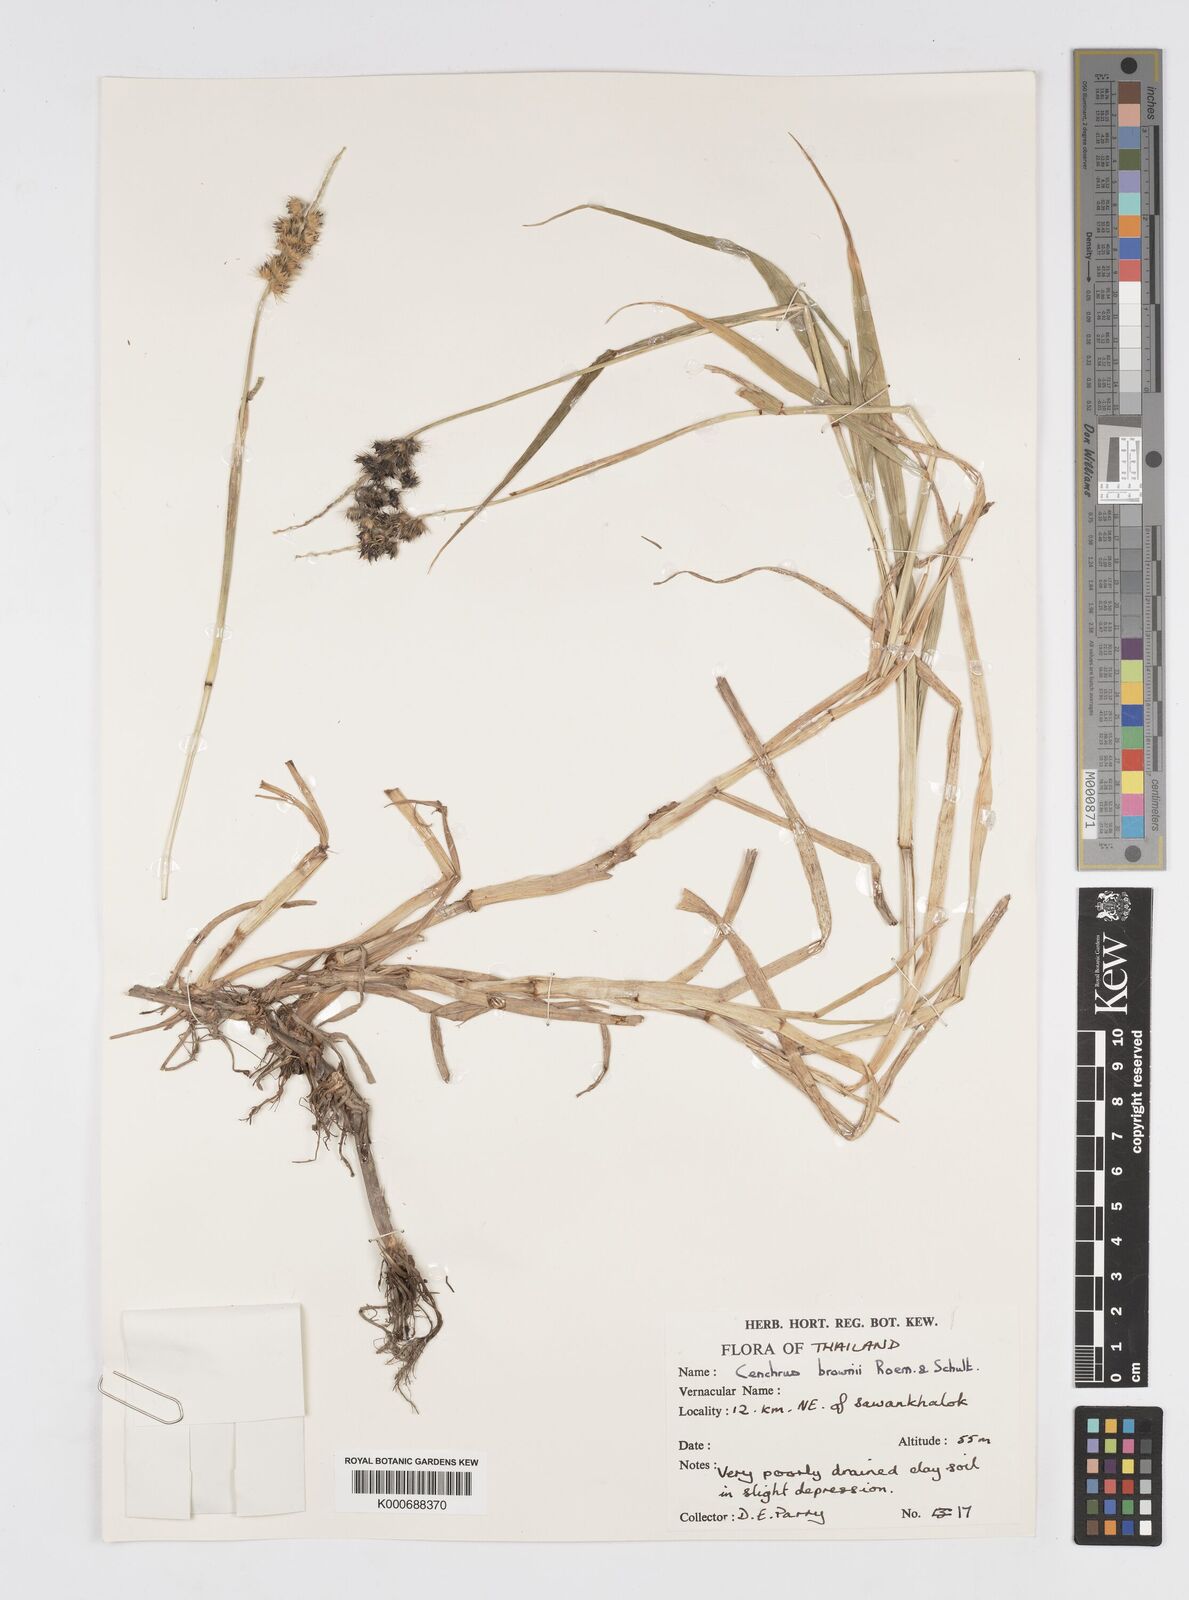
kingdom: Plantae
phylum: Tracheophyta
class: Liliopsida
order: Poales
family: Poaceae
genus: Cenchrus
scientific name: Cenchrus brownii
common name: Slim-bristle sandbur
